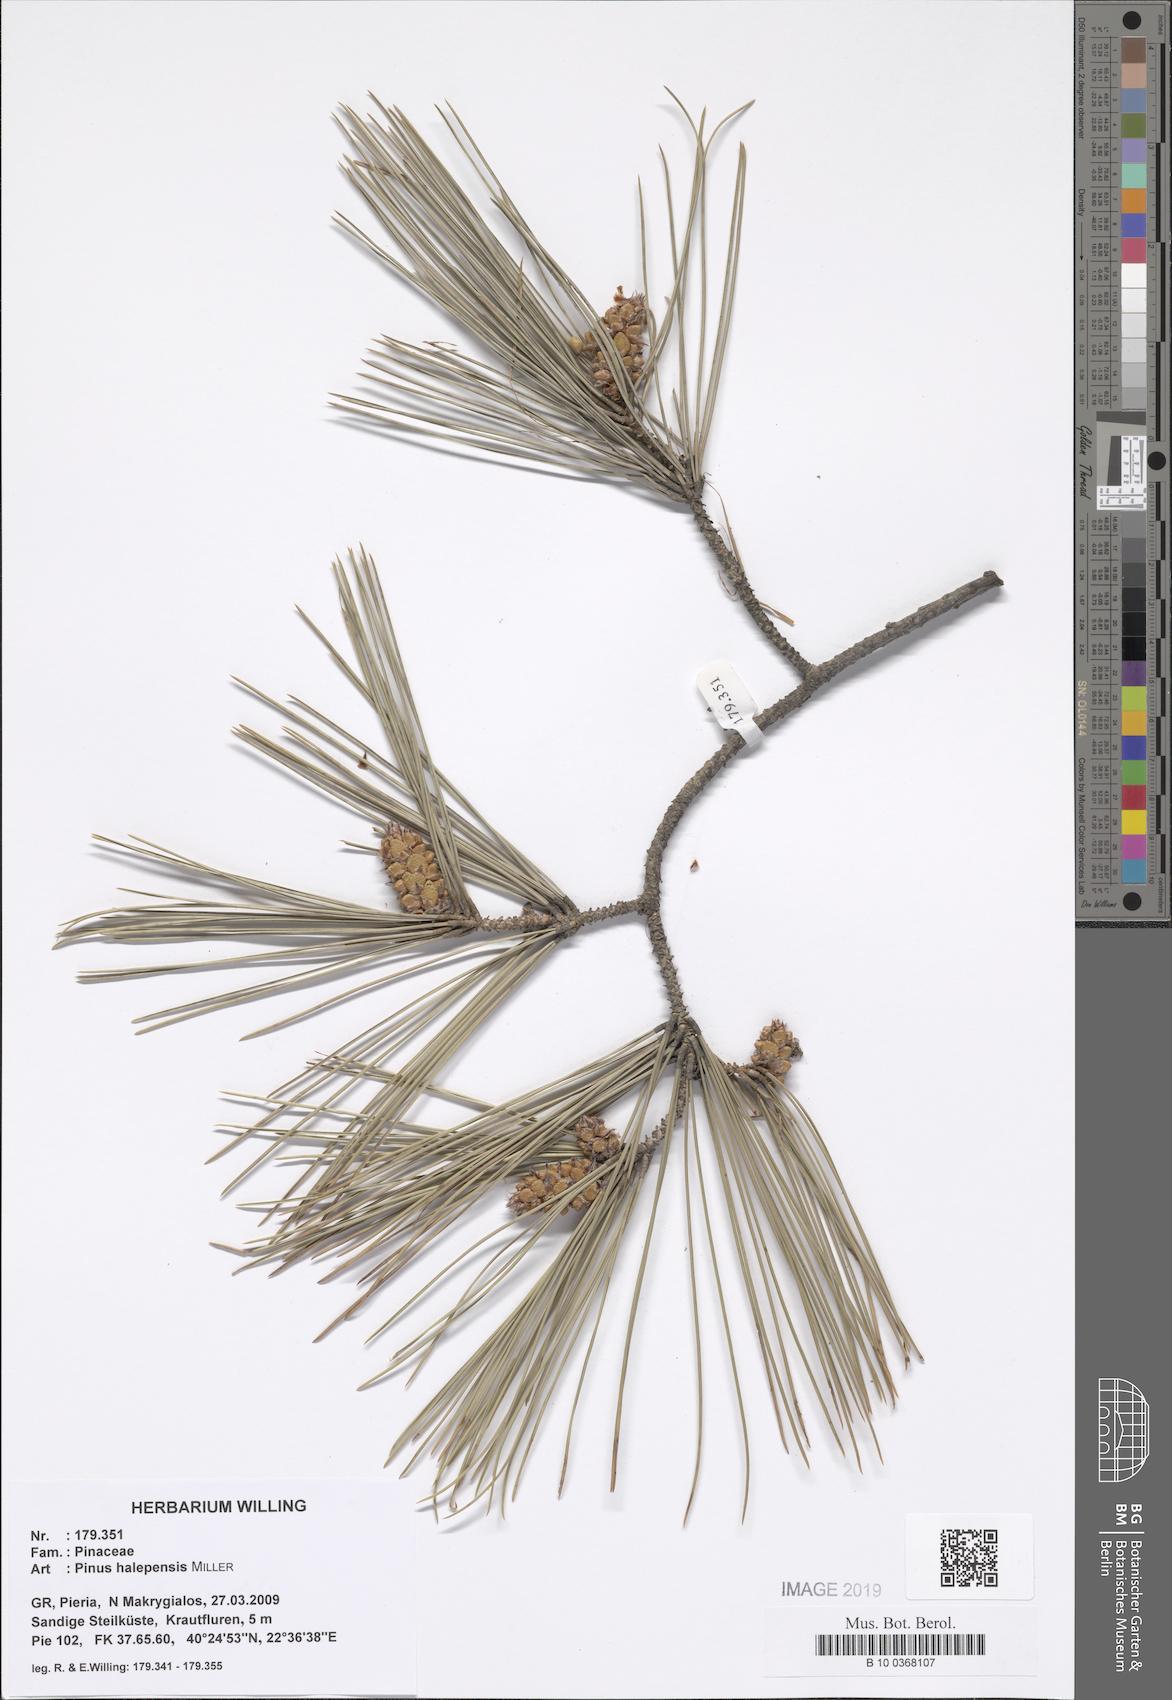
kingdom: Plantae
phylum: Tracheophyta
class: Pinopsida
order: Pinales
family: Pinaceae
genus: Pinus
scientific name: Pinus halepensis
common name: Aleppo pine
